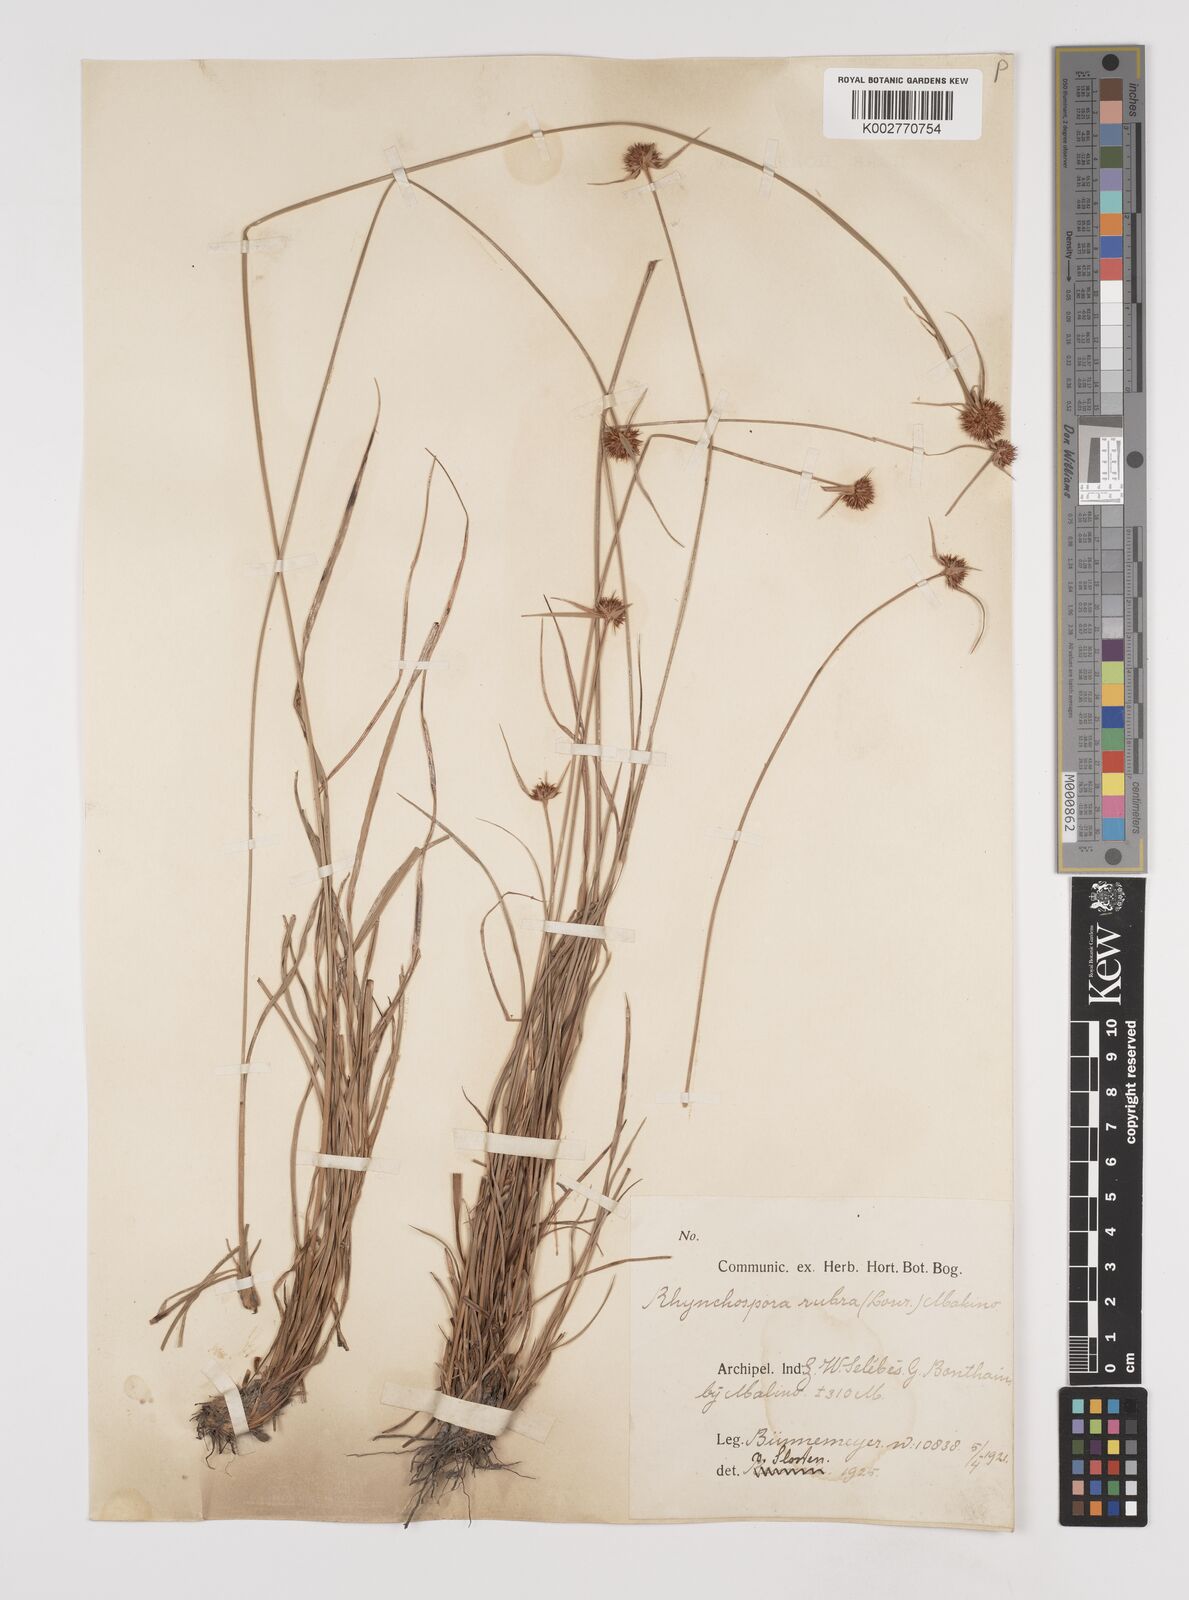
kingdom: Plantae
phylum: Tracheophyta
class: Liliopsida
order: Poales
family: Cyperaceae
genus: Rhynchospora
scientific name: Rhynchospora rubra
